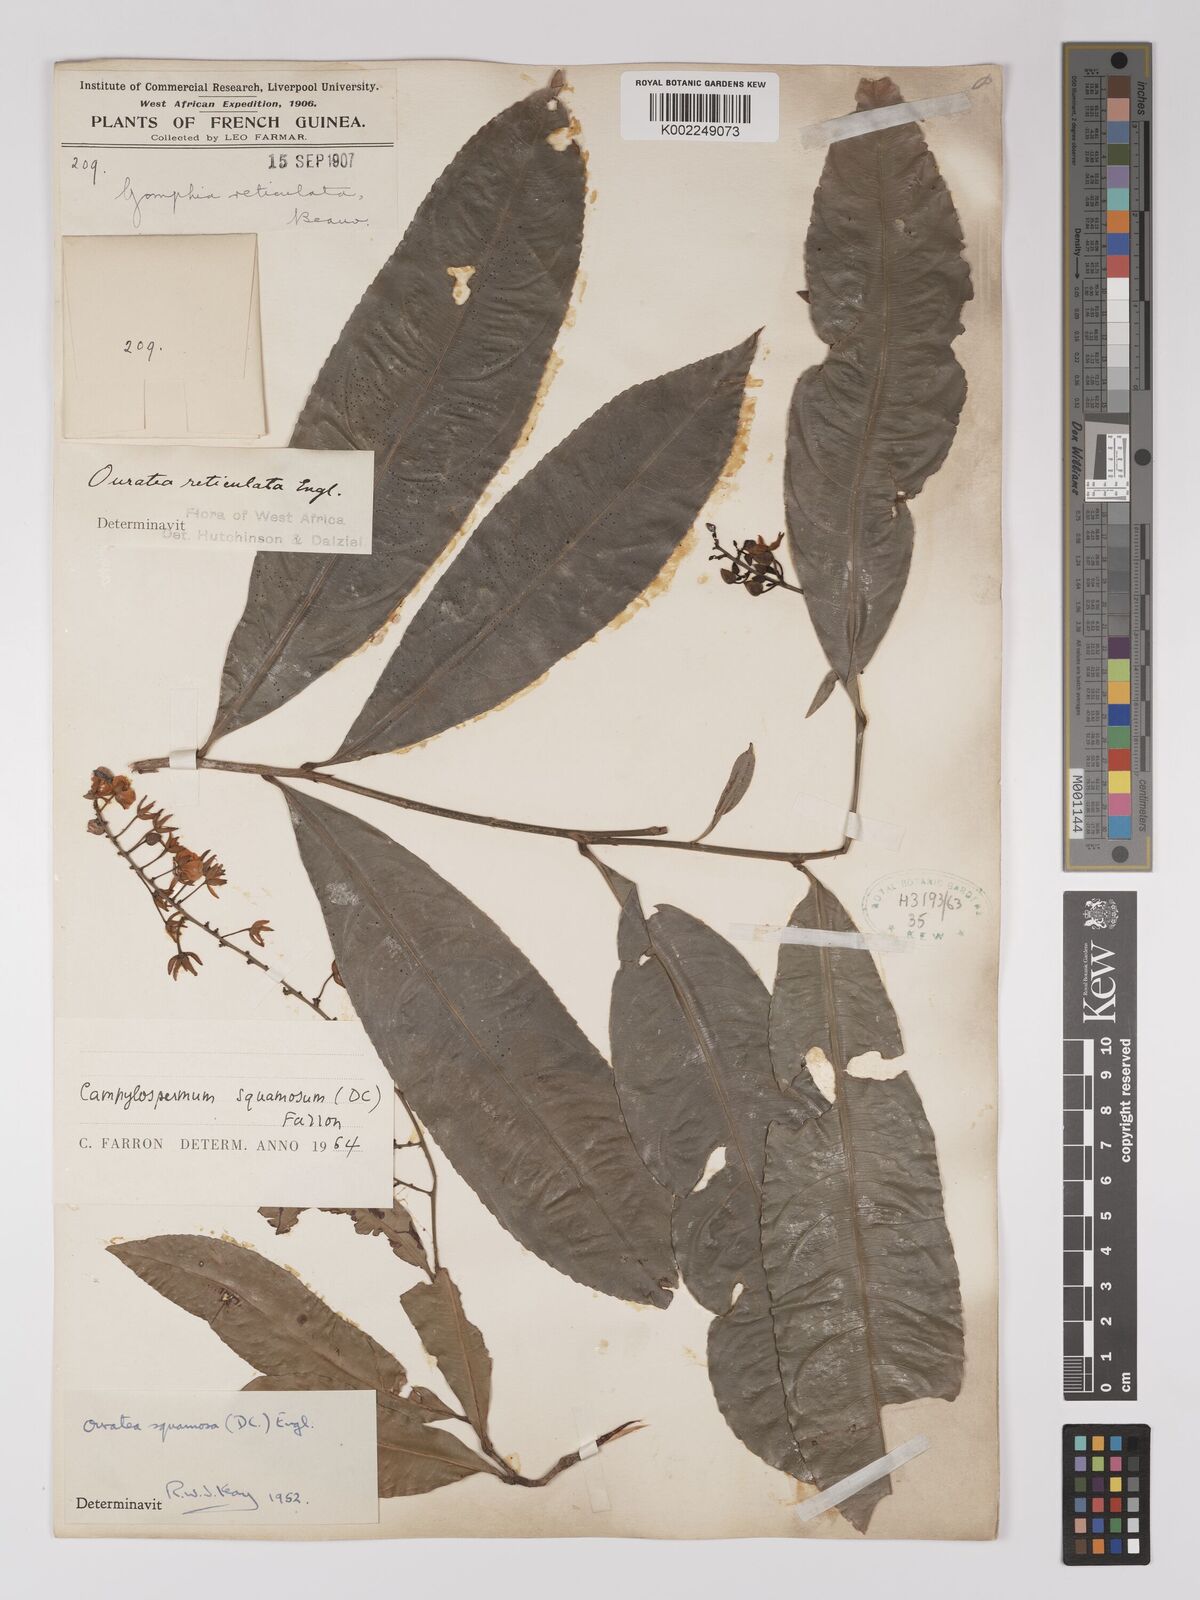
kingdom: Plantae
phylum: Tracheophyta
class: Magnoliopsida
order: Malpighiales
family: Ochnaceae
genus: Campylospermum
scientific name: Campylospermum squamosum
